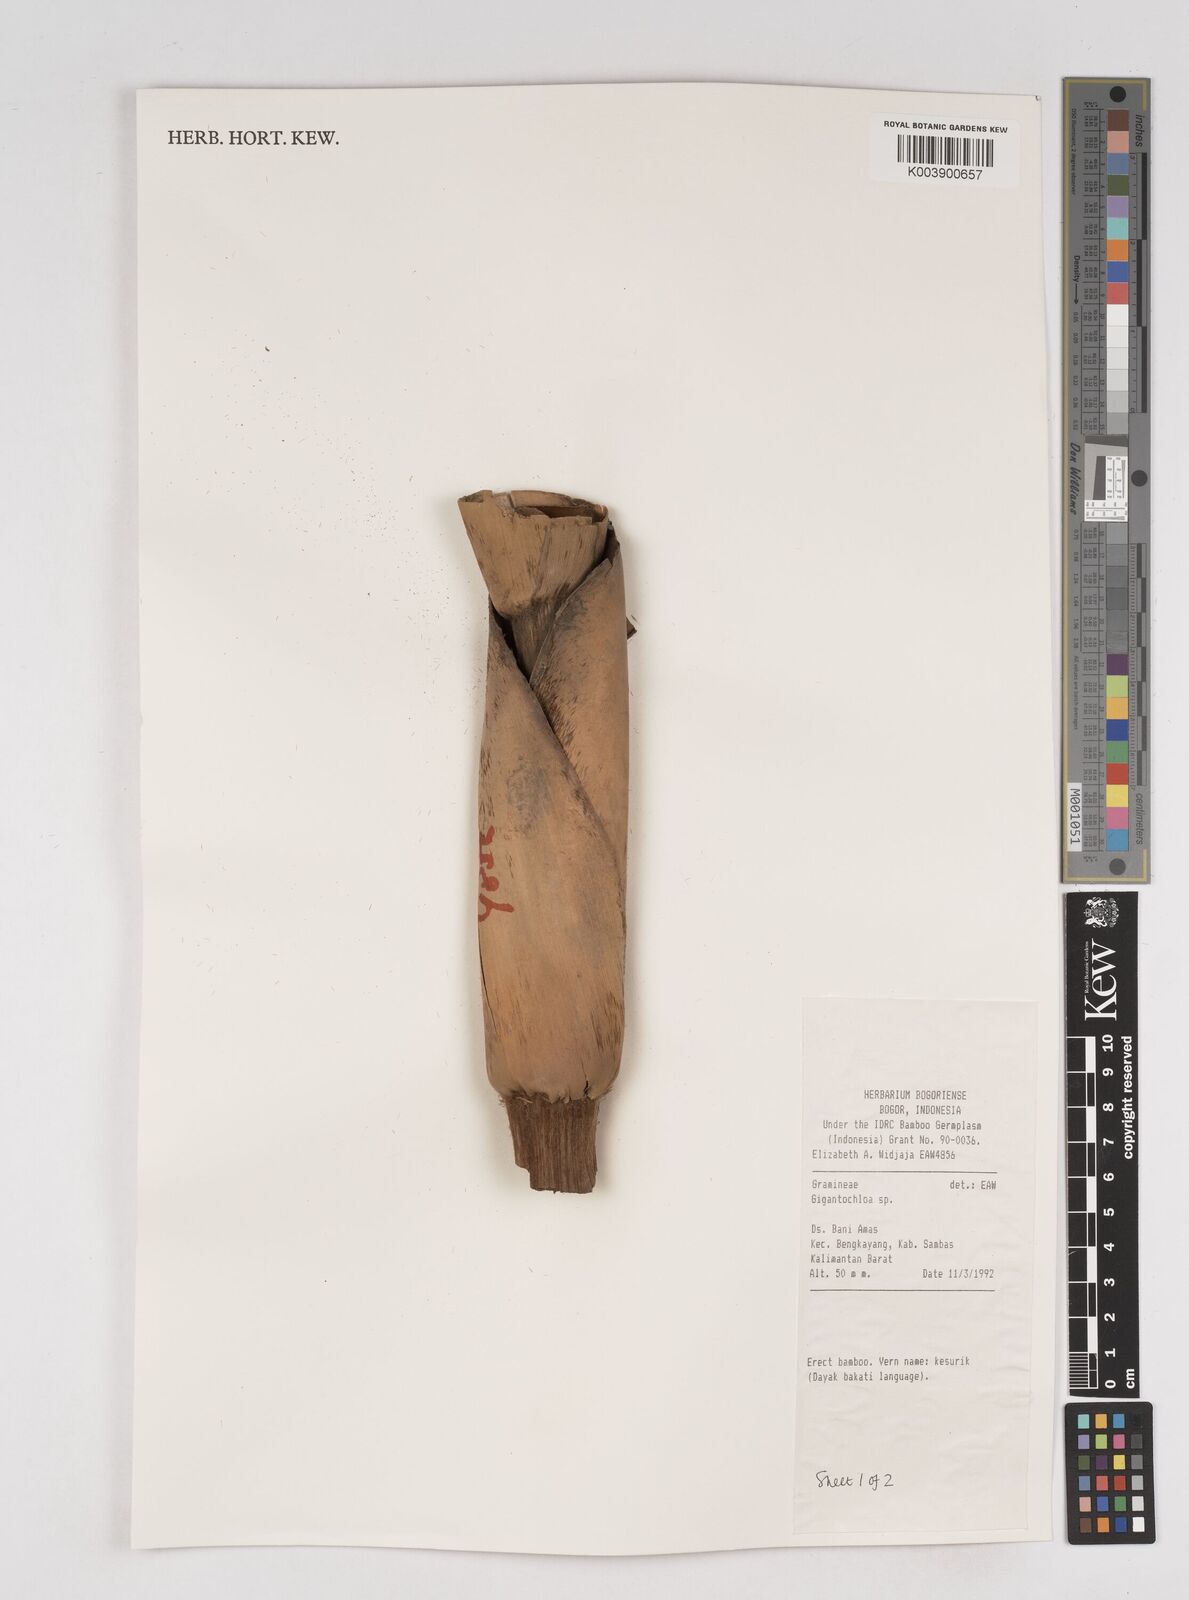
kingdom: Plantae
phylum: Tracheophyta
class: Liliopsida
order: Poales
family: Poaceae
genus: Gigantochloa
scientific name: Gigantochloa
